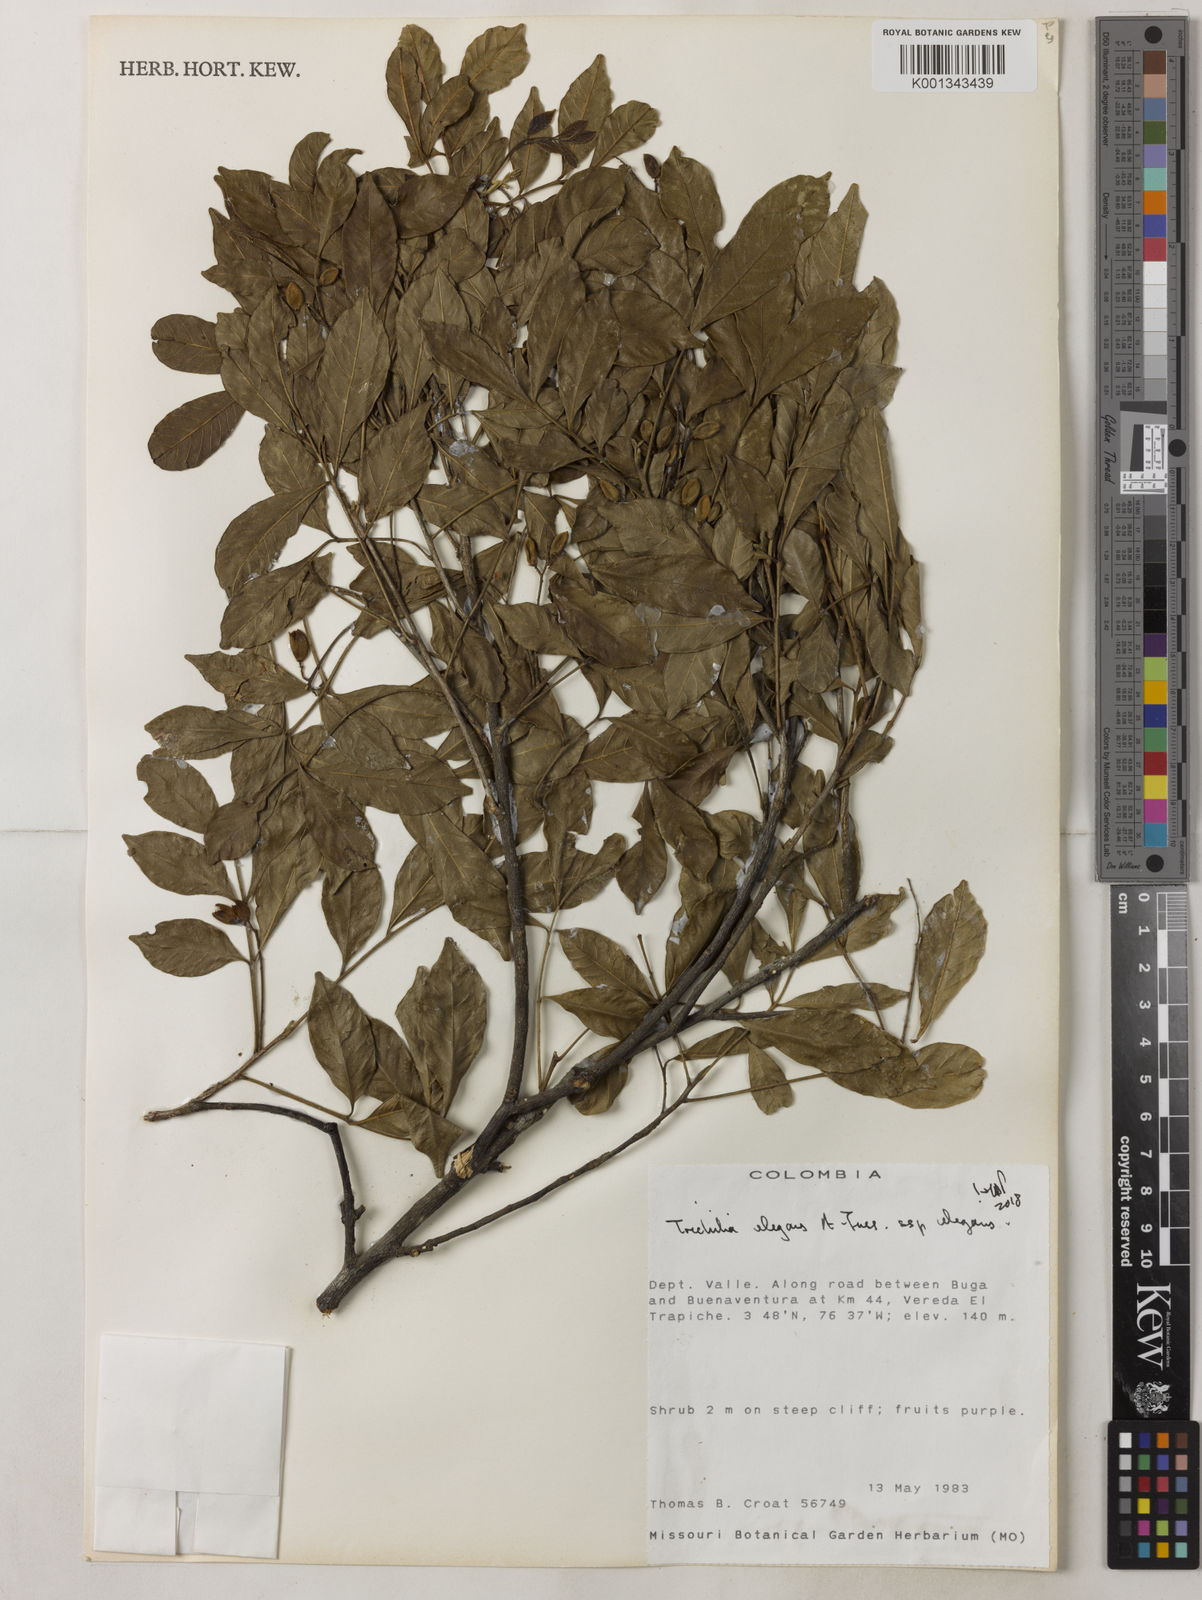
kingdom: Plantae
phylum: Tracheophyta
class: Magnoliopsida
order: Sapindales
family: Meliaceae
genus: Trichilia
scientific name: Trichilia elegans
